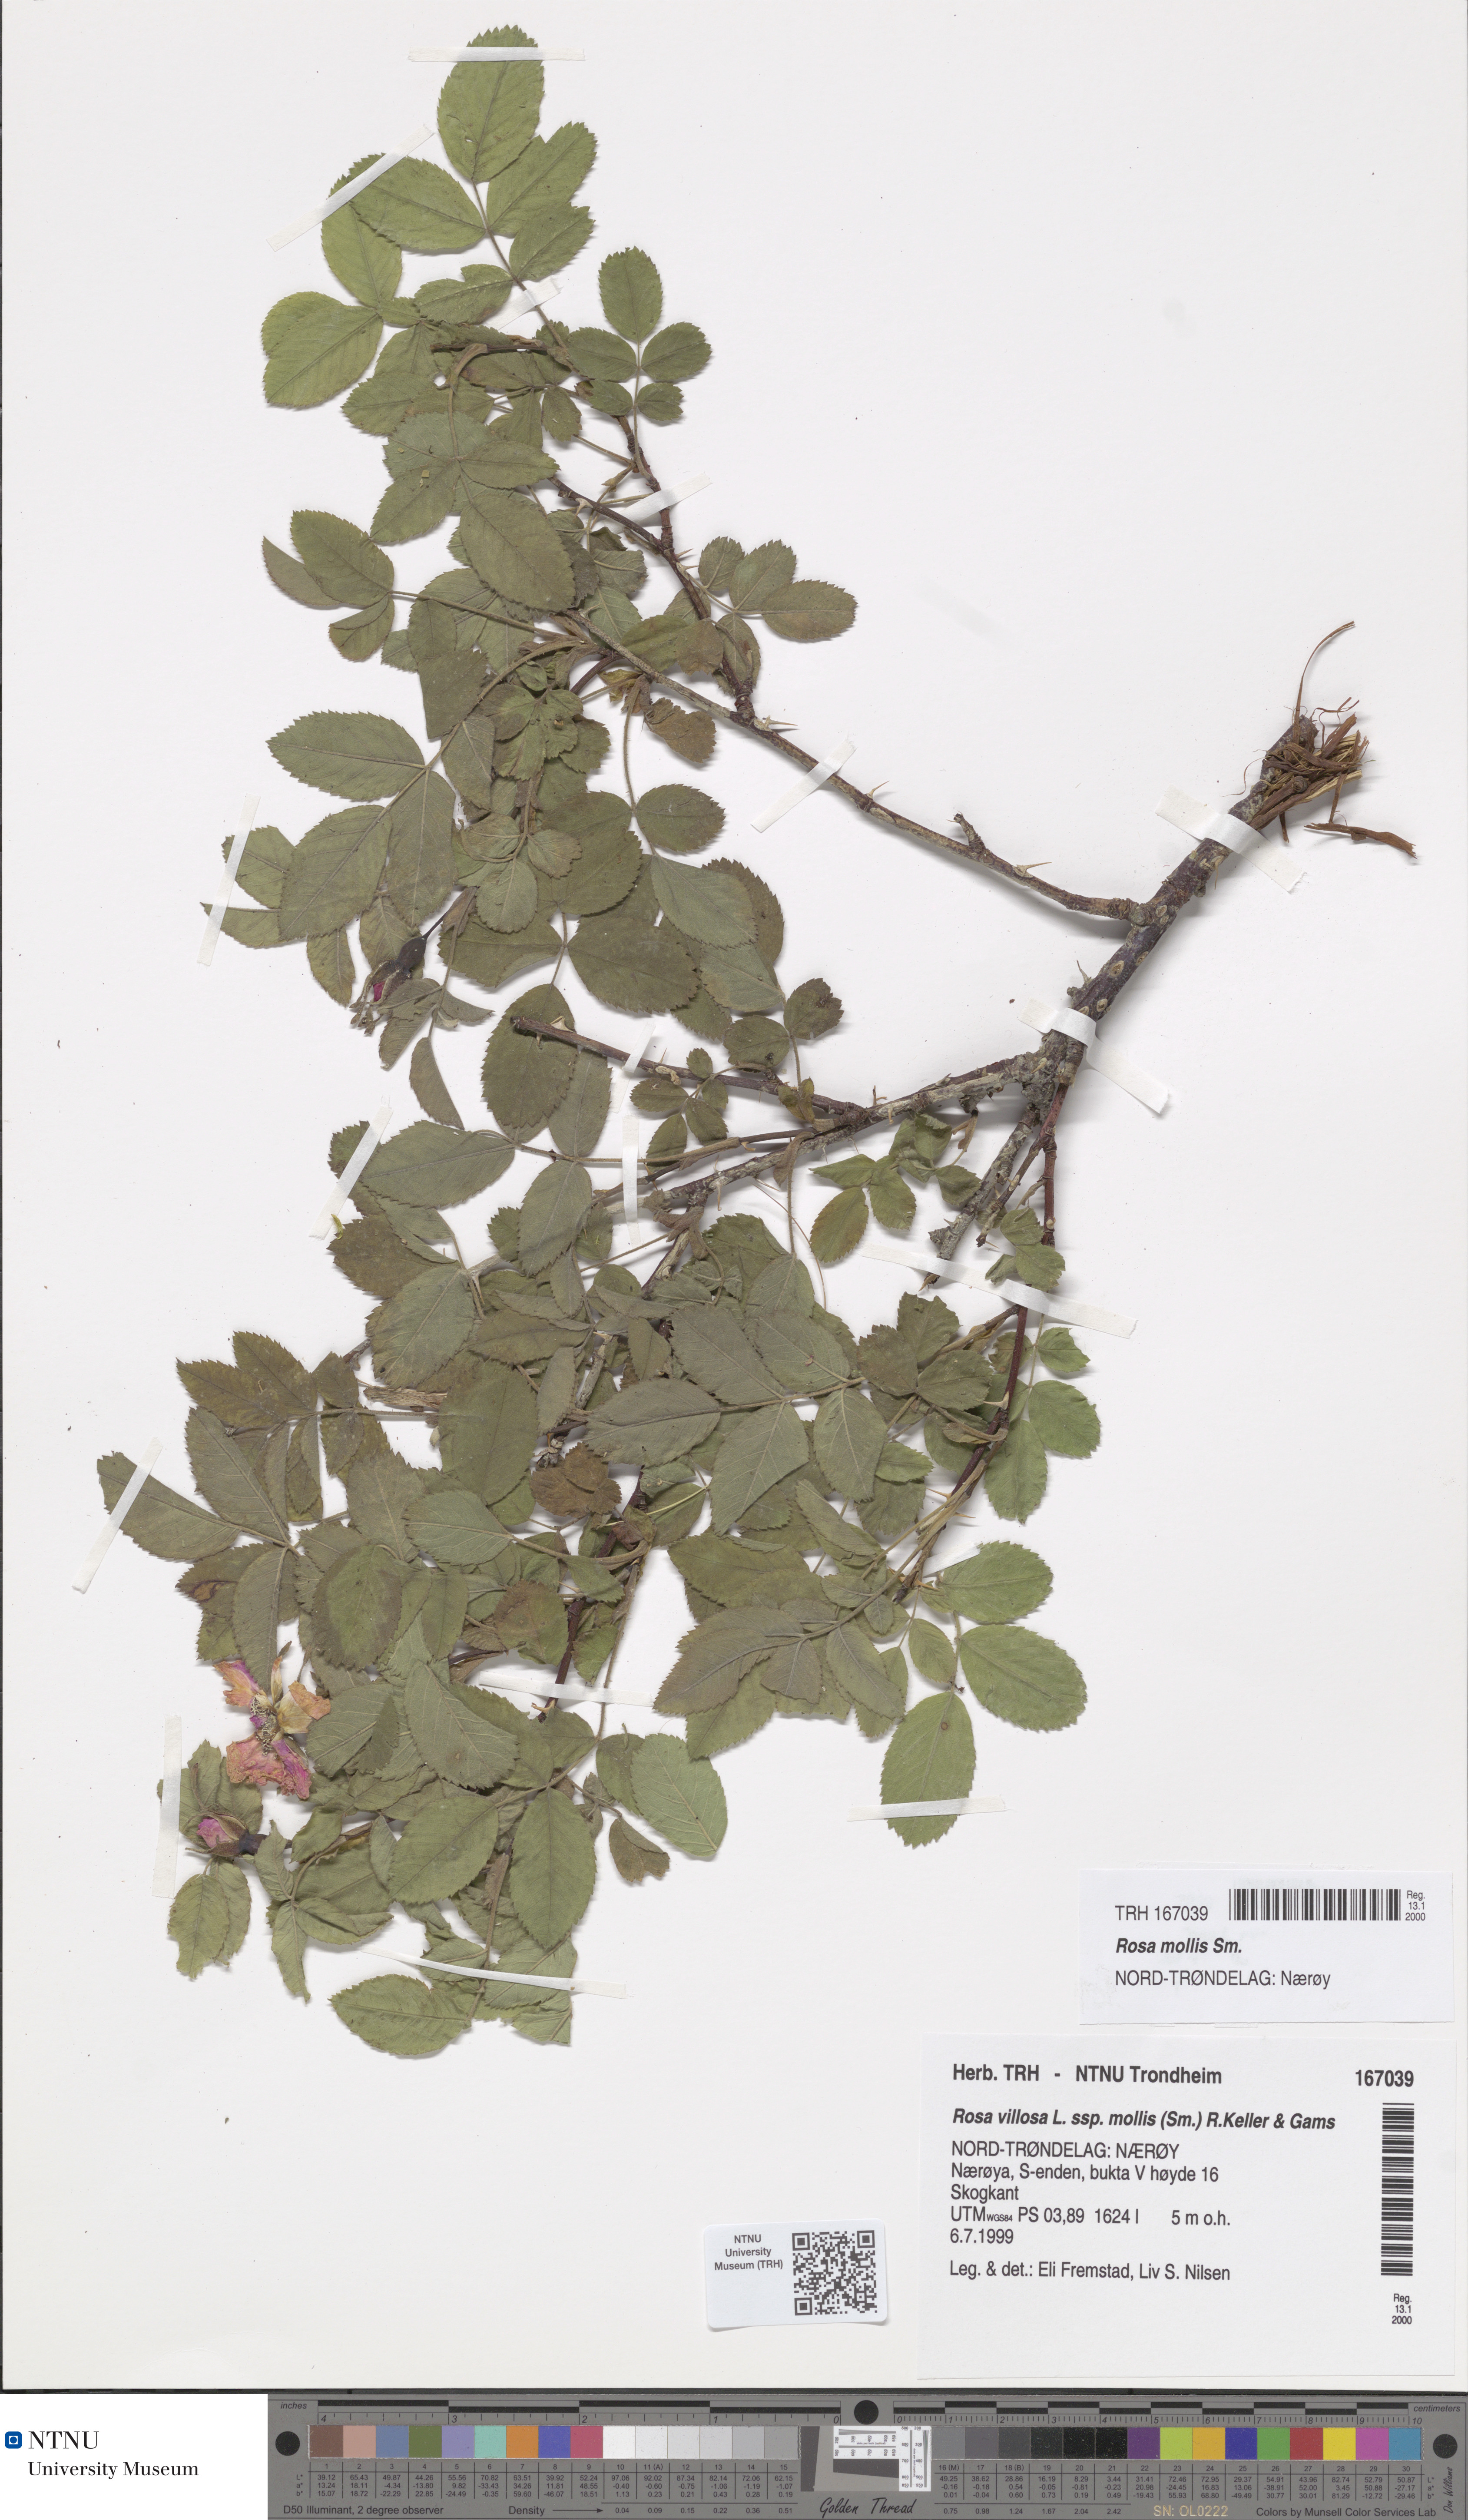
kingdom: Plantae
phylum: Tracheophyta
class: Magnoliopsida
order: Rosales
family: Rosaceae
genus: Rosa
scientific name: Rosa mollis
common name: Rose
